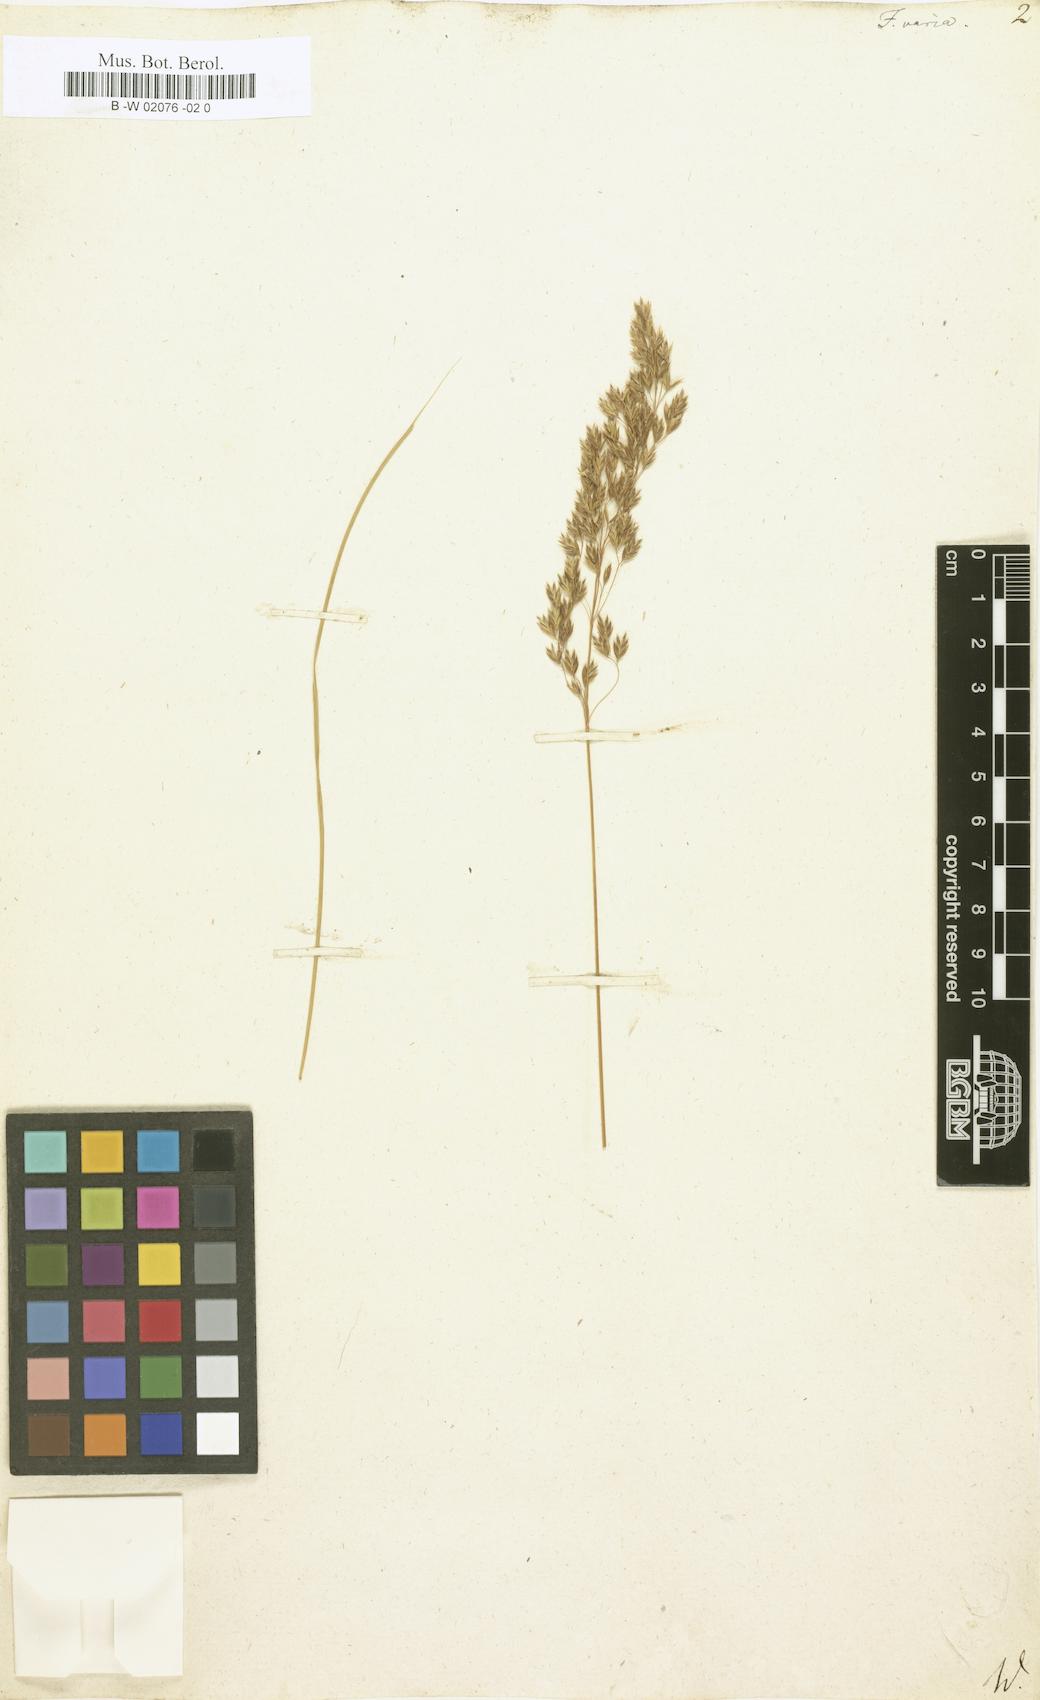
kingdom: Plantae
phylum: Tracheophyta
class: Liliopsida
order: Poales
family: Poaceae
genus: Festuca
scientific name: Festuca varia
